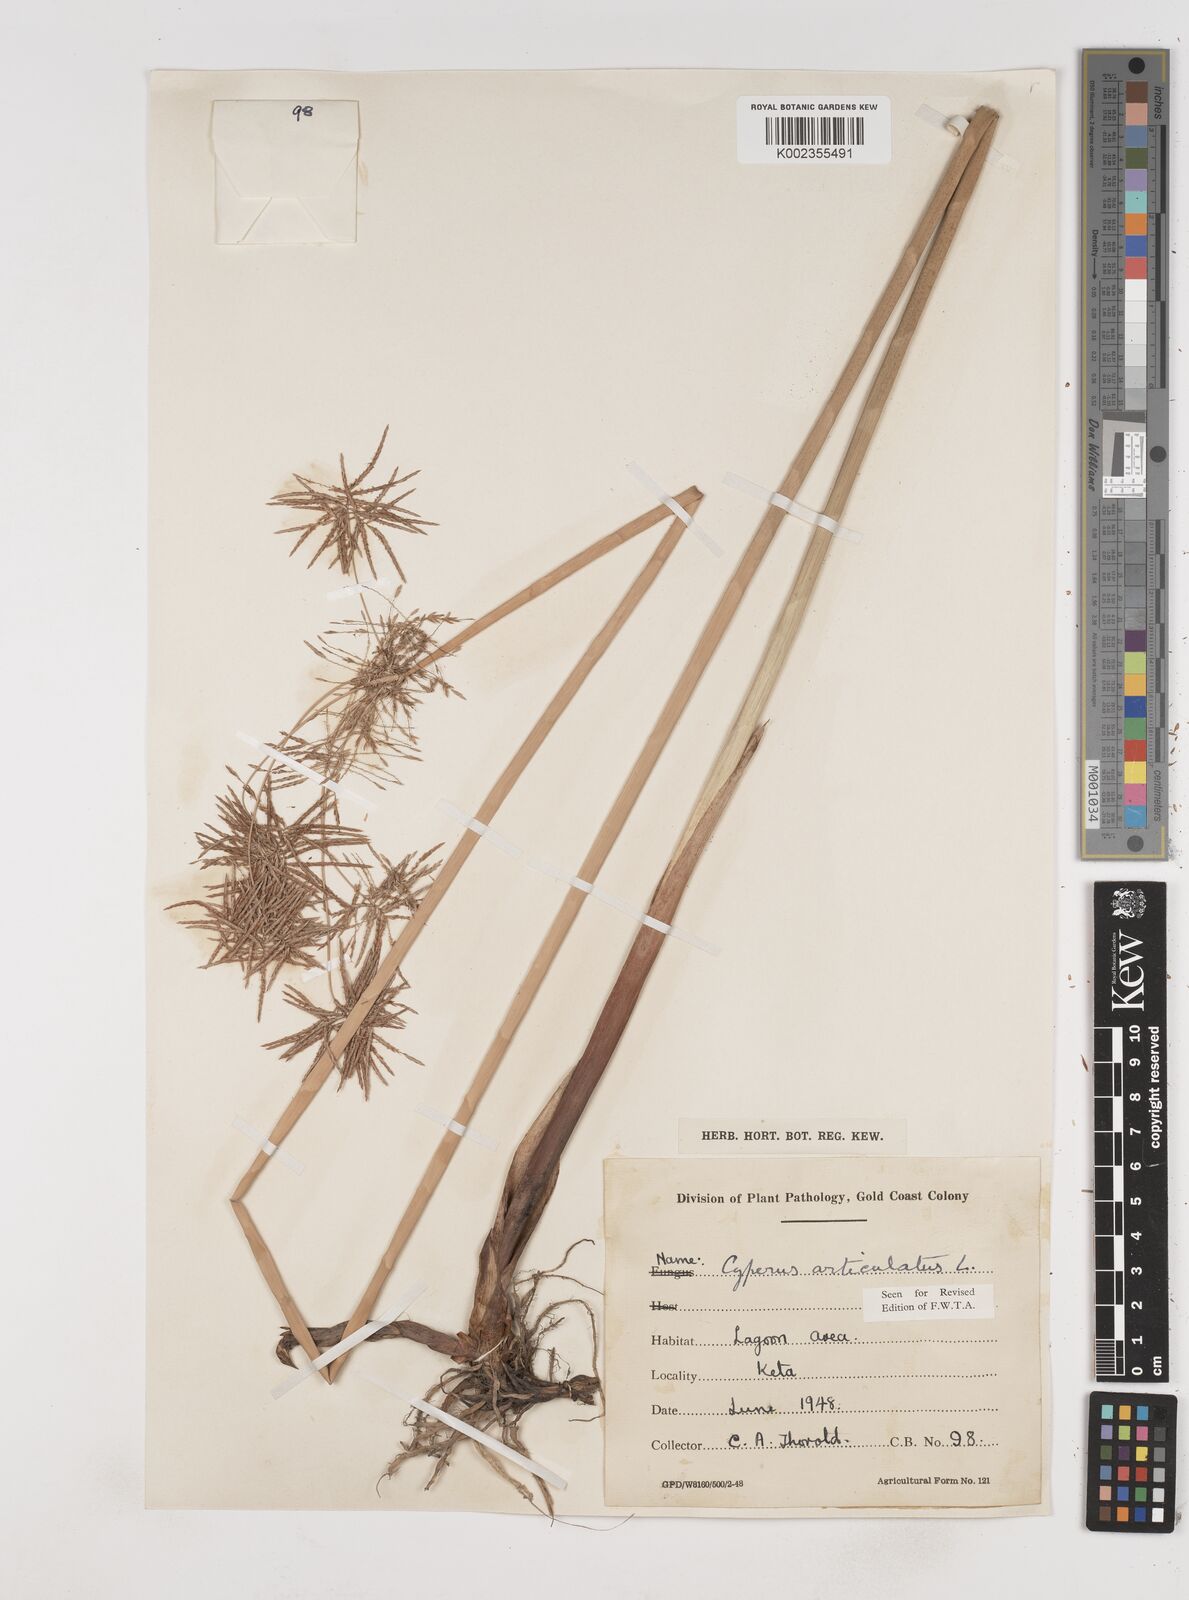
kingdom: Plantae
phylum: Tracheophyta
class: Liliopsida
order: Poales
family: Cyperaceae
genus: Cyperus
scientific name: Cyperus articulatus
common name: Jointed flatsedge
